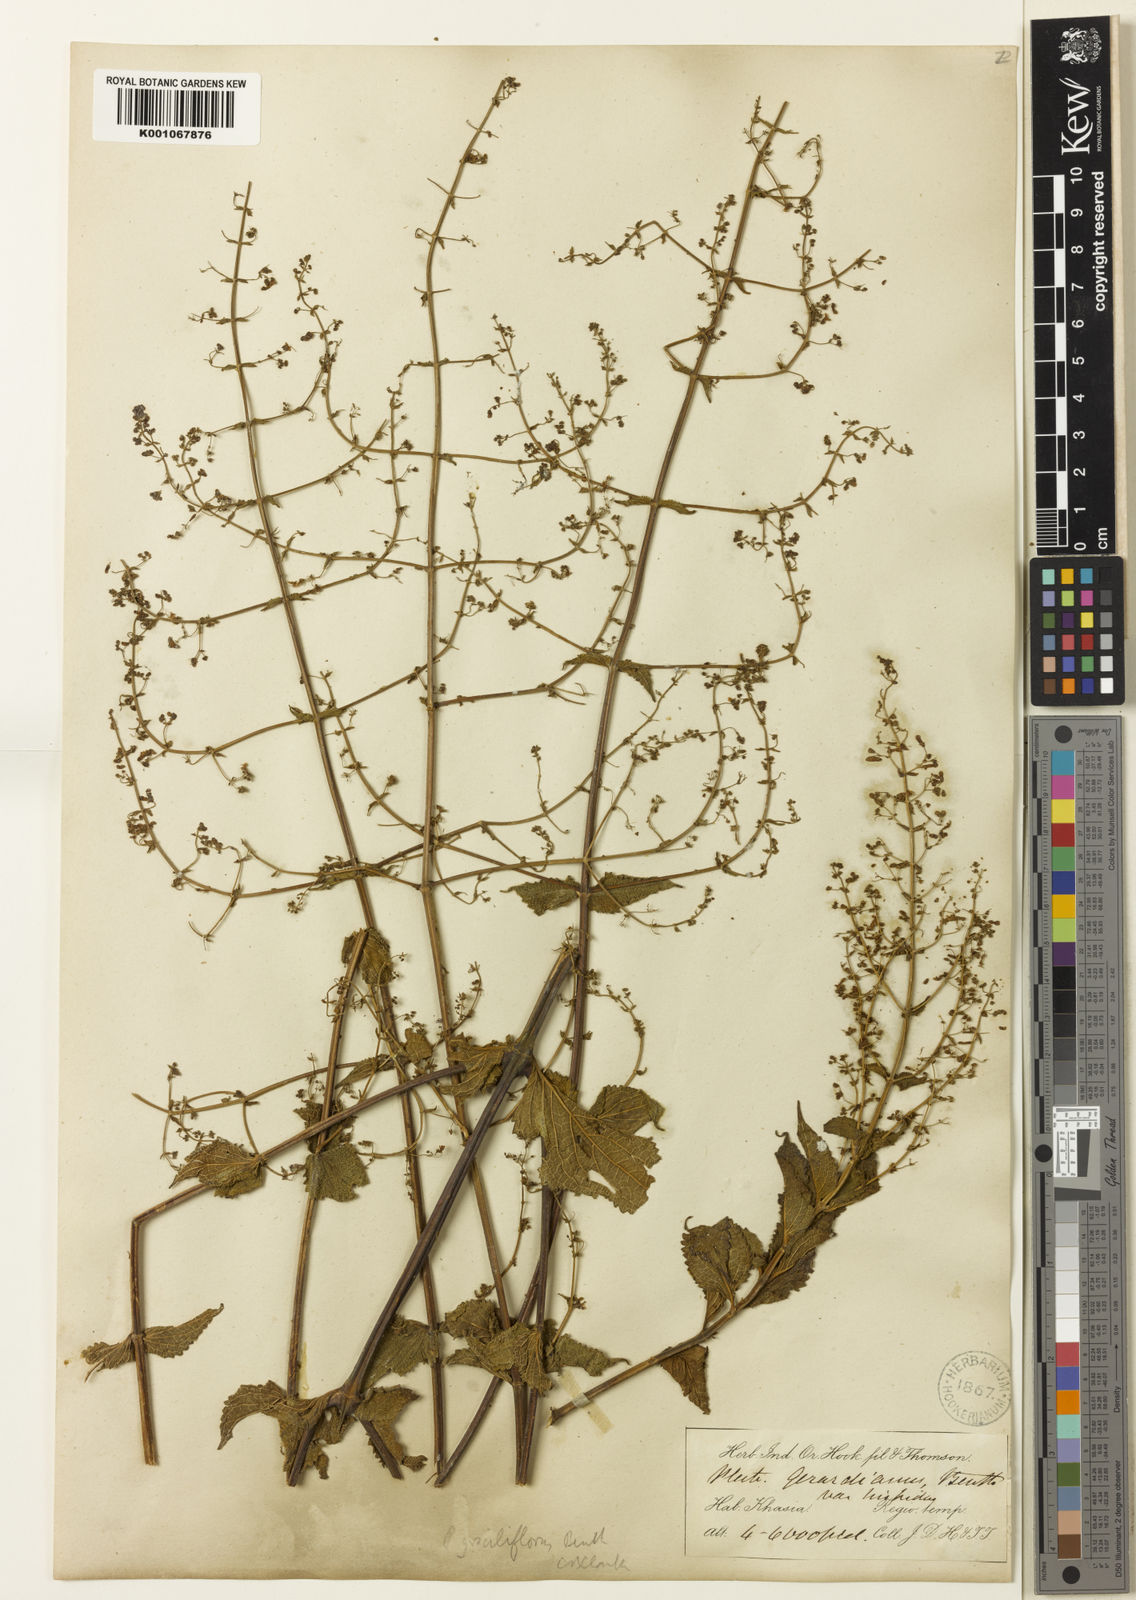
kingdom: Plantae
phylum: Tracheophyta
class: Magnoliopsida
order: Lamiales
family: Lamiaceae
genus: Isodon
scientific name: Isodon lophanthoides
